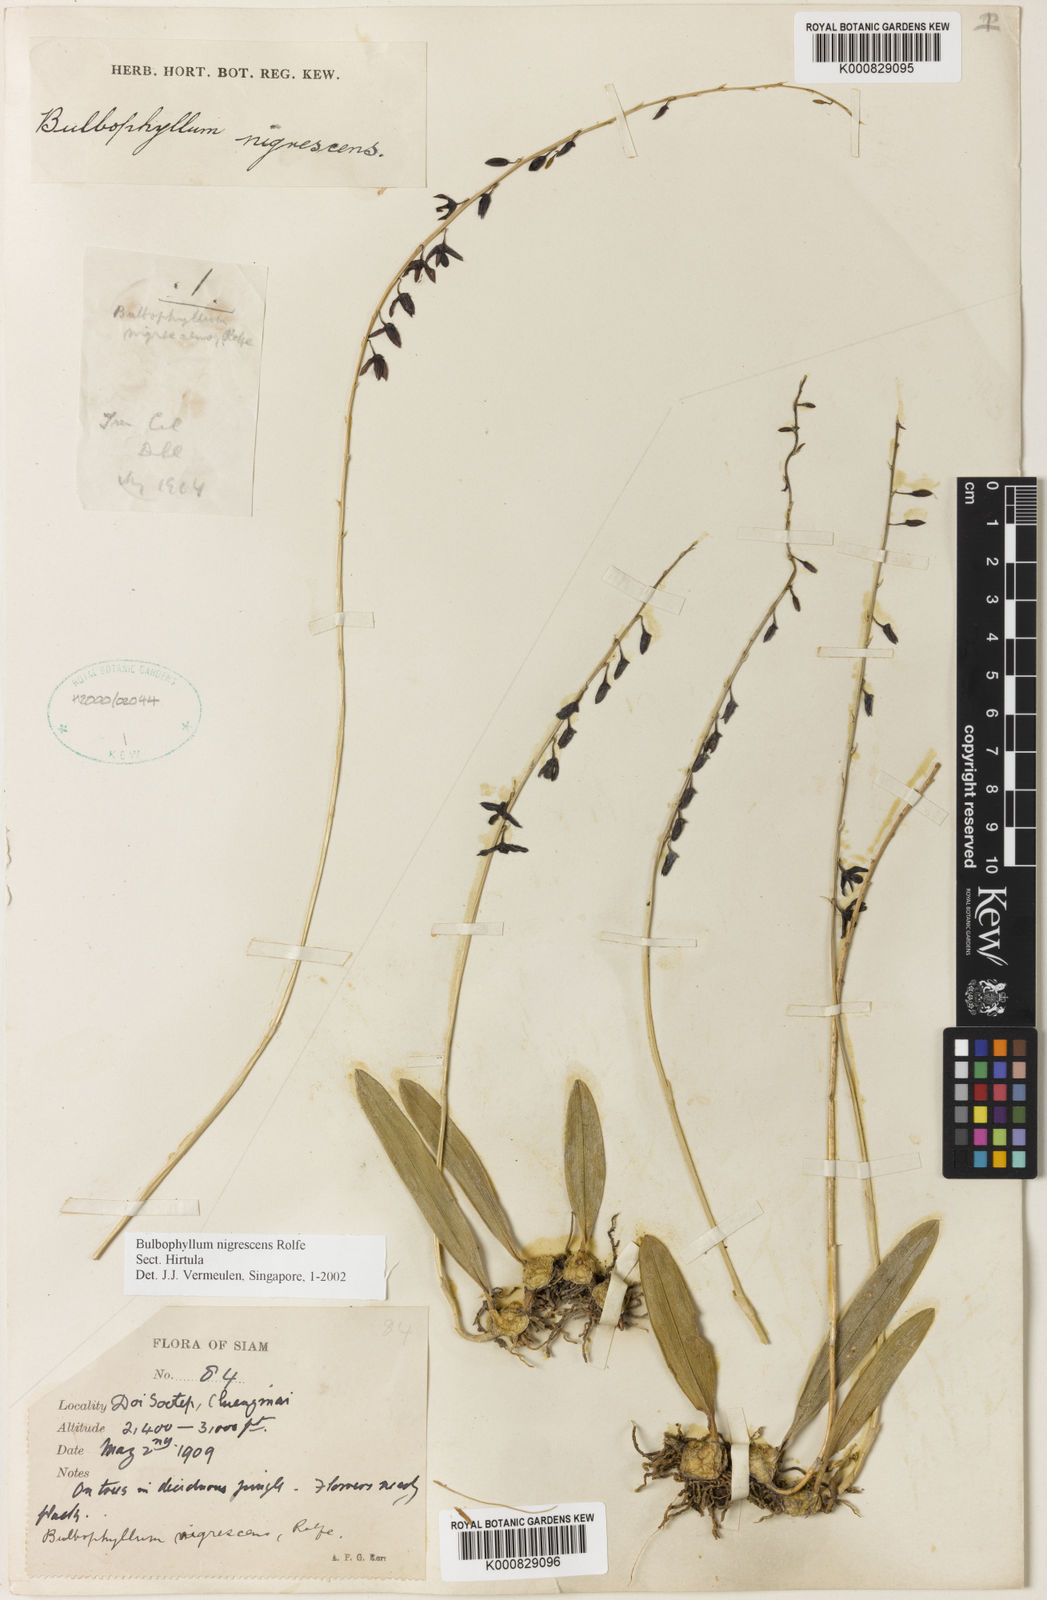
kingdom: Plantae
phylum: Tracheophyta
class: Liliopsida
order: Asparagales
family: Orchidaceae
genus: Bulbophyllum
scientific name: Bulbophyllum nigrescens
